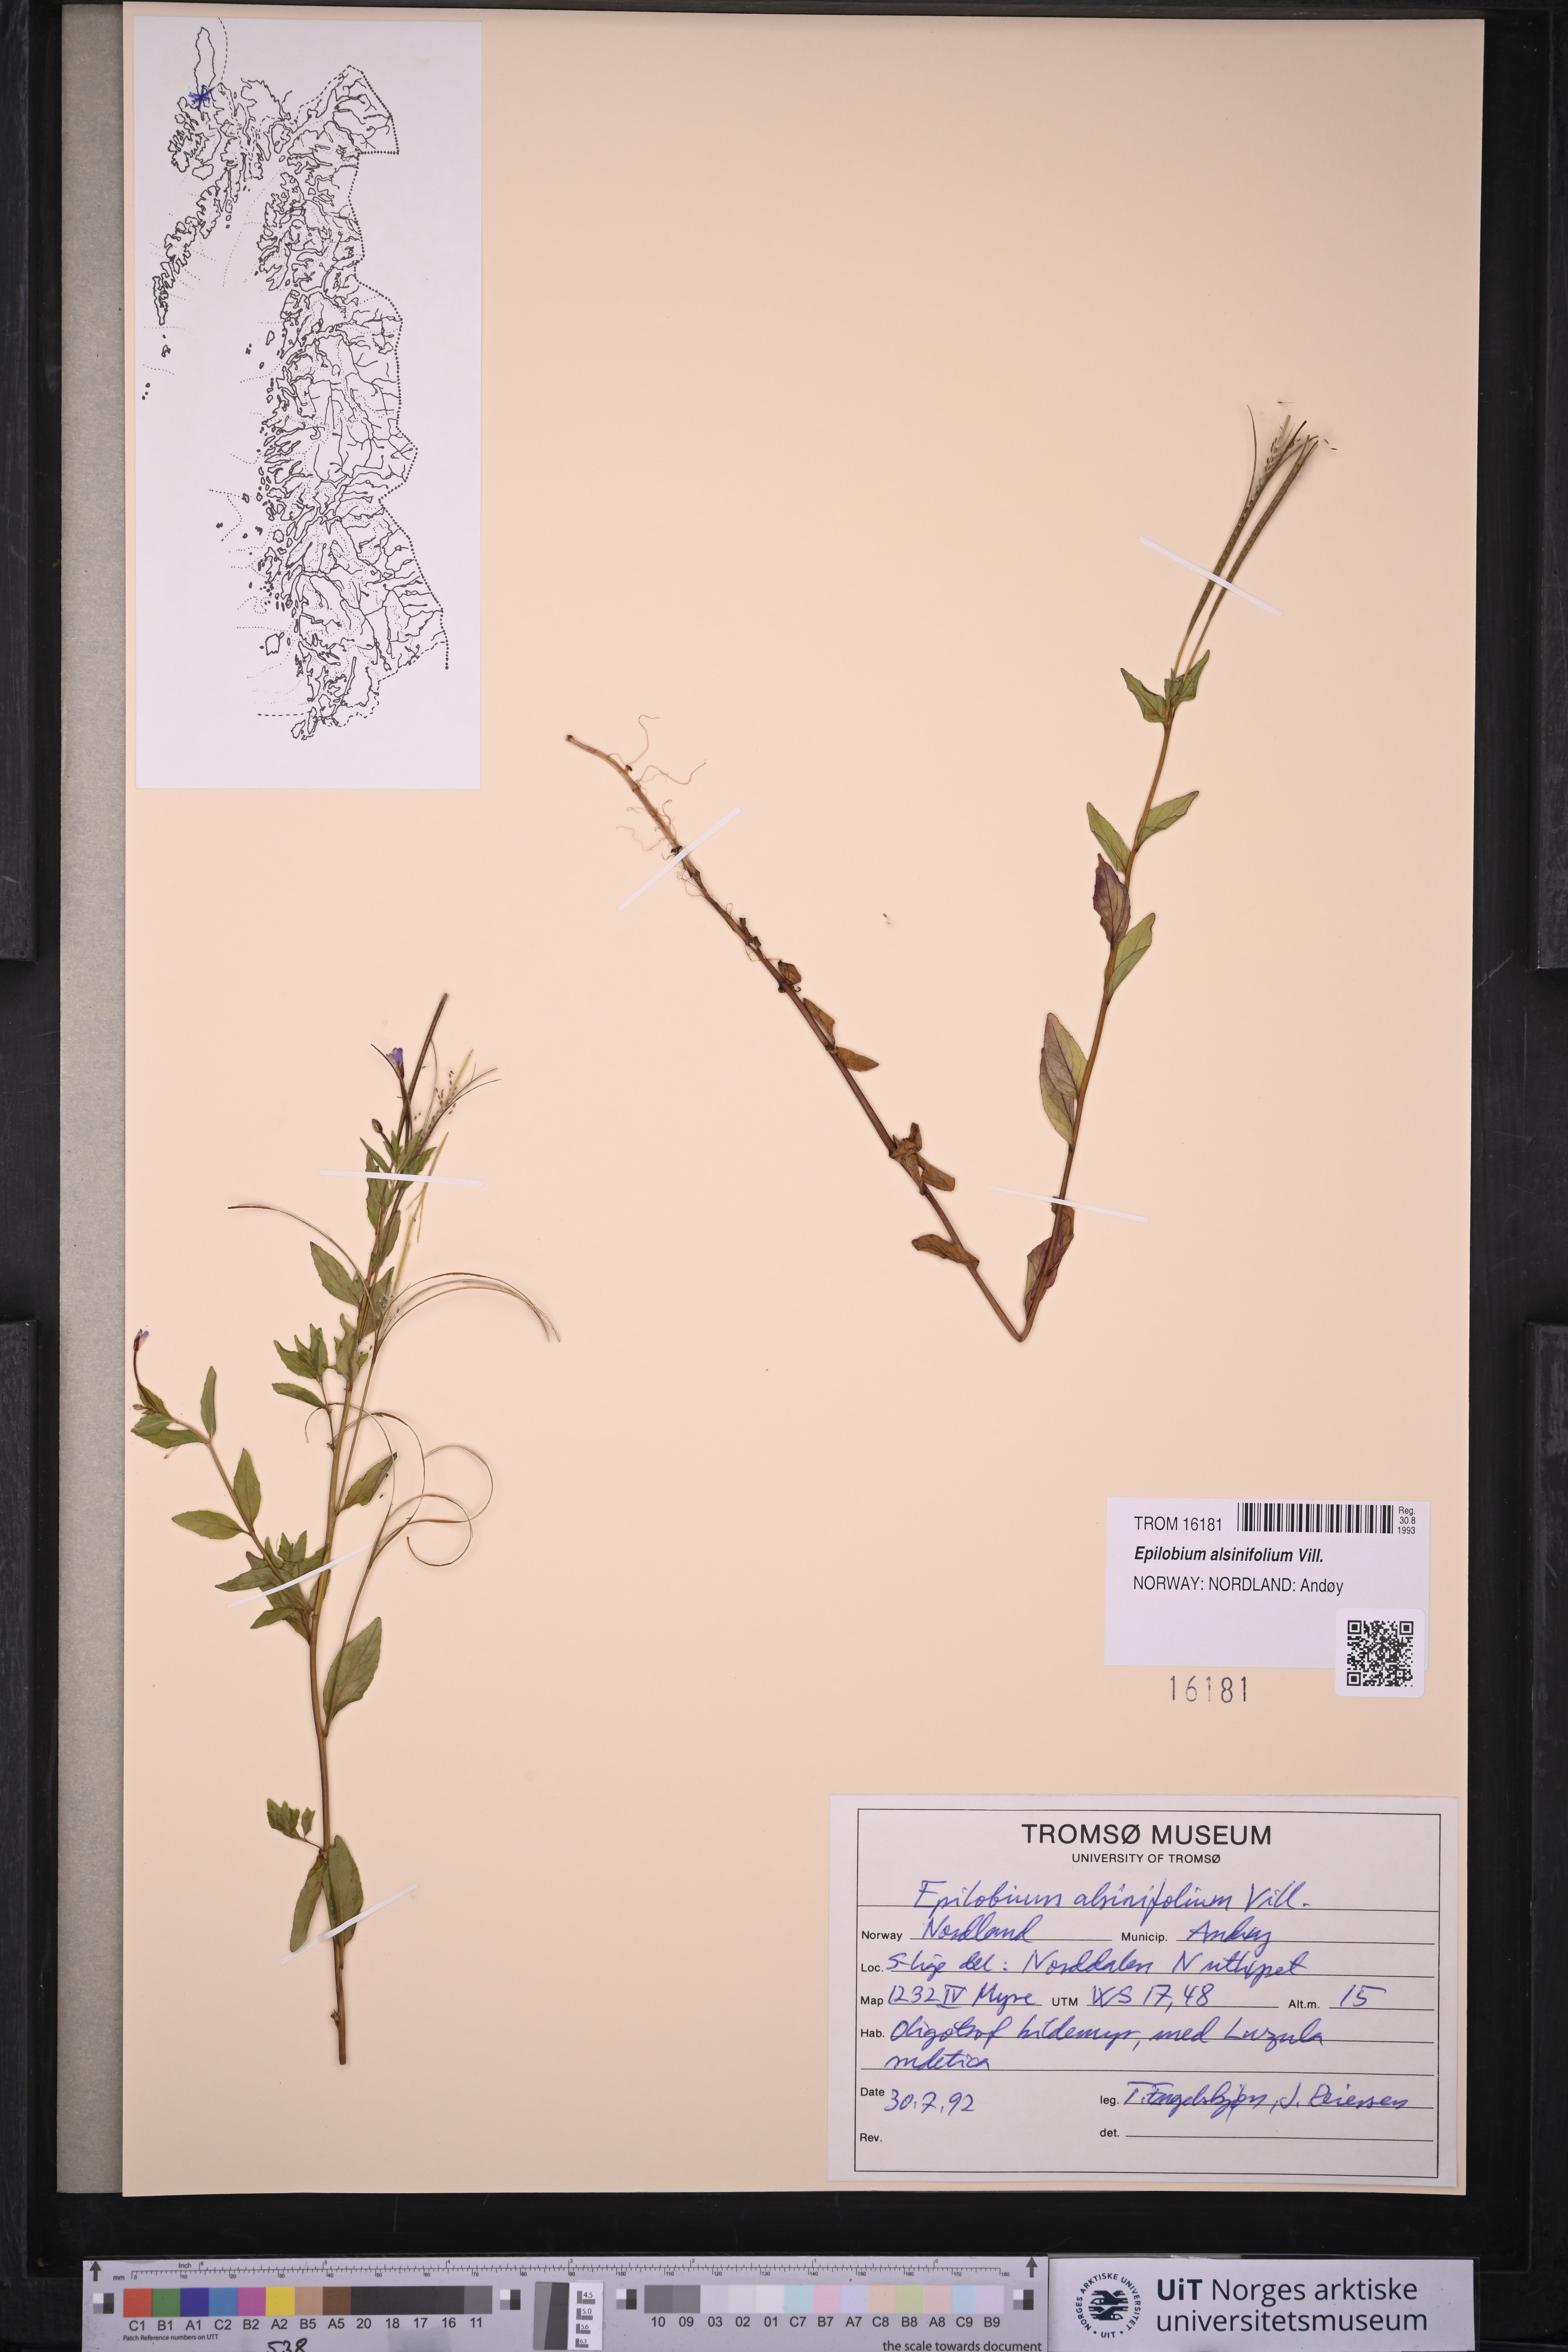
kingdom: Plantae
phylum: Tracheophyta
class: Magnoliopsida
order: Myrtales
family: Onagraceae
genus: Epilobium
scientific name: Epilobium alsinifolium
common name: Chickweed willowherb
